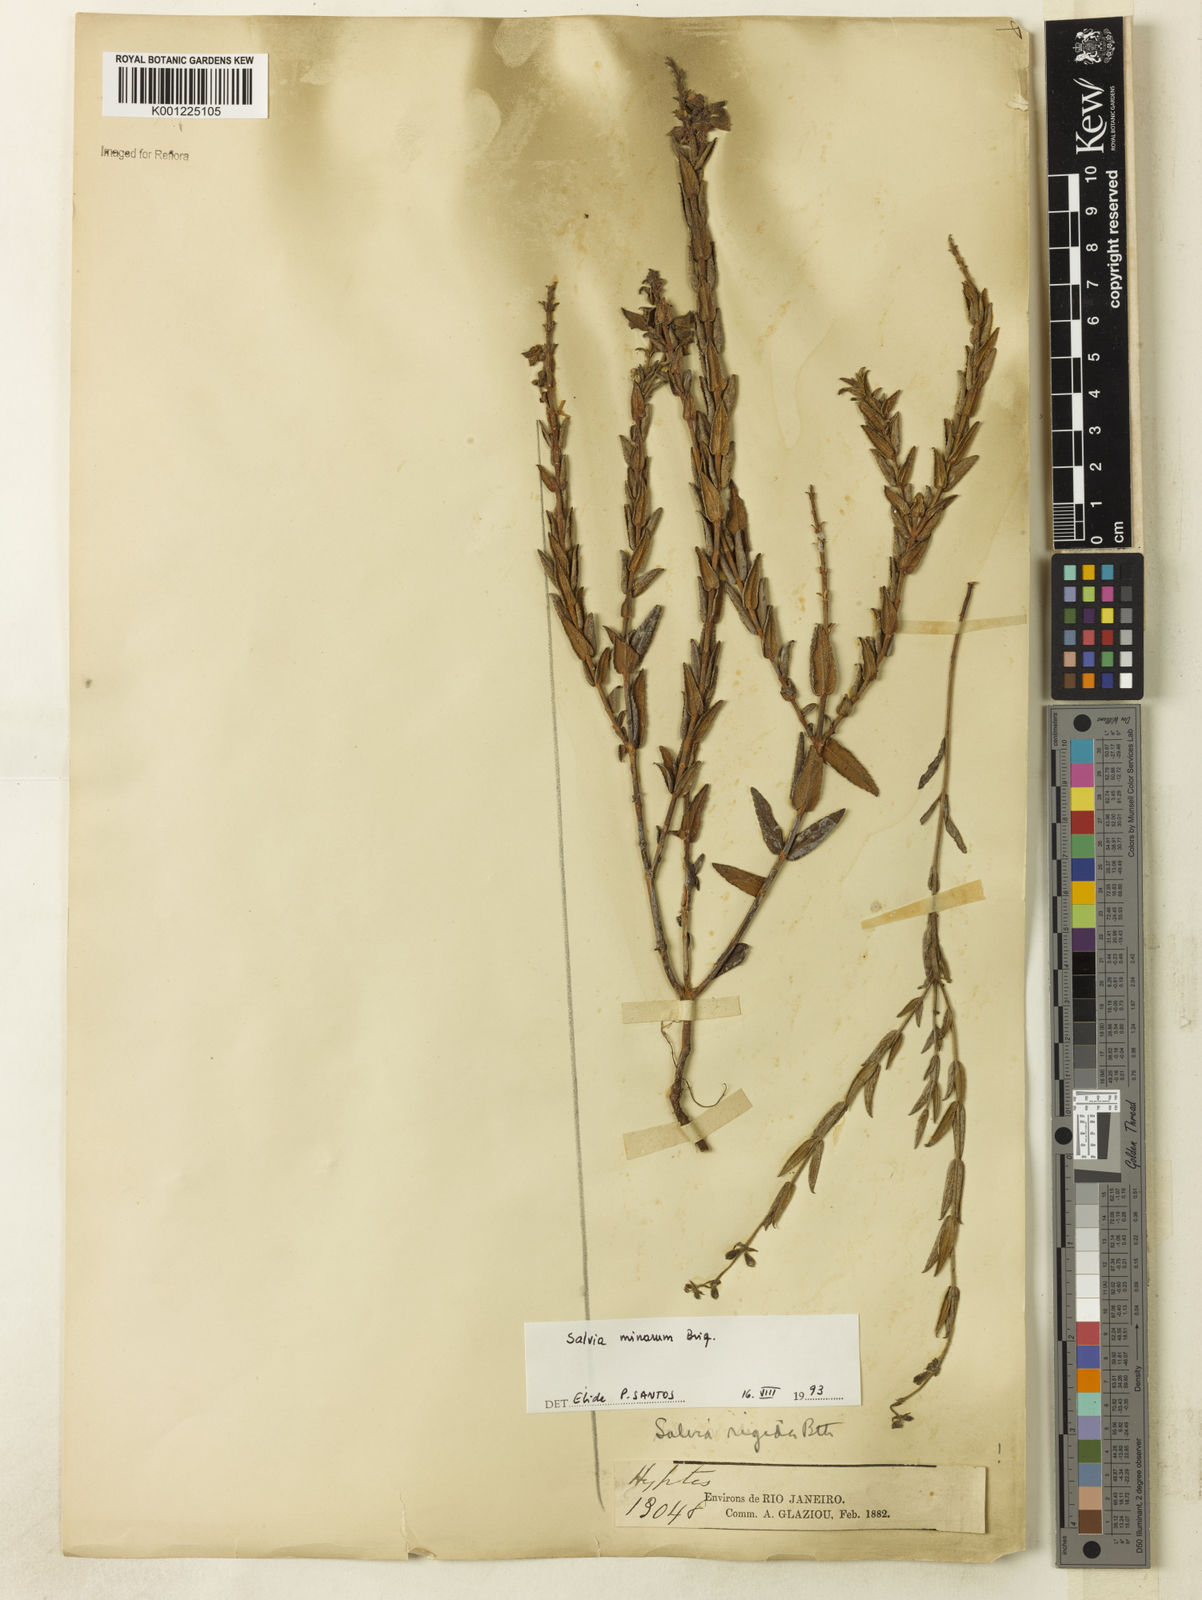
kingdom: Plantae
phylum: Tracheophyta
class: Magnoliopsida
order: Lamiales
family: Lamiaceae
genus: Salvia
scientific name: Salvia minarum
